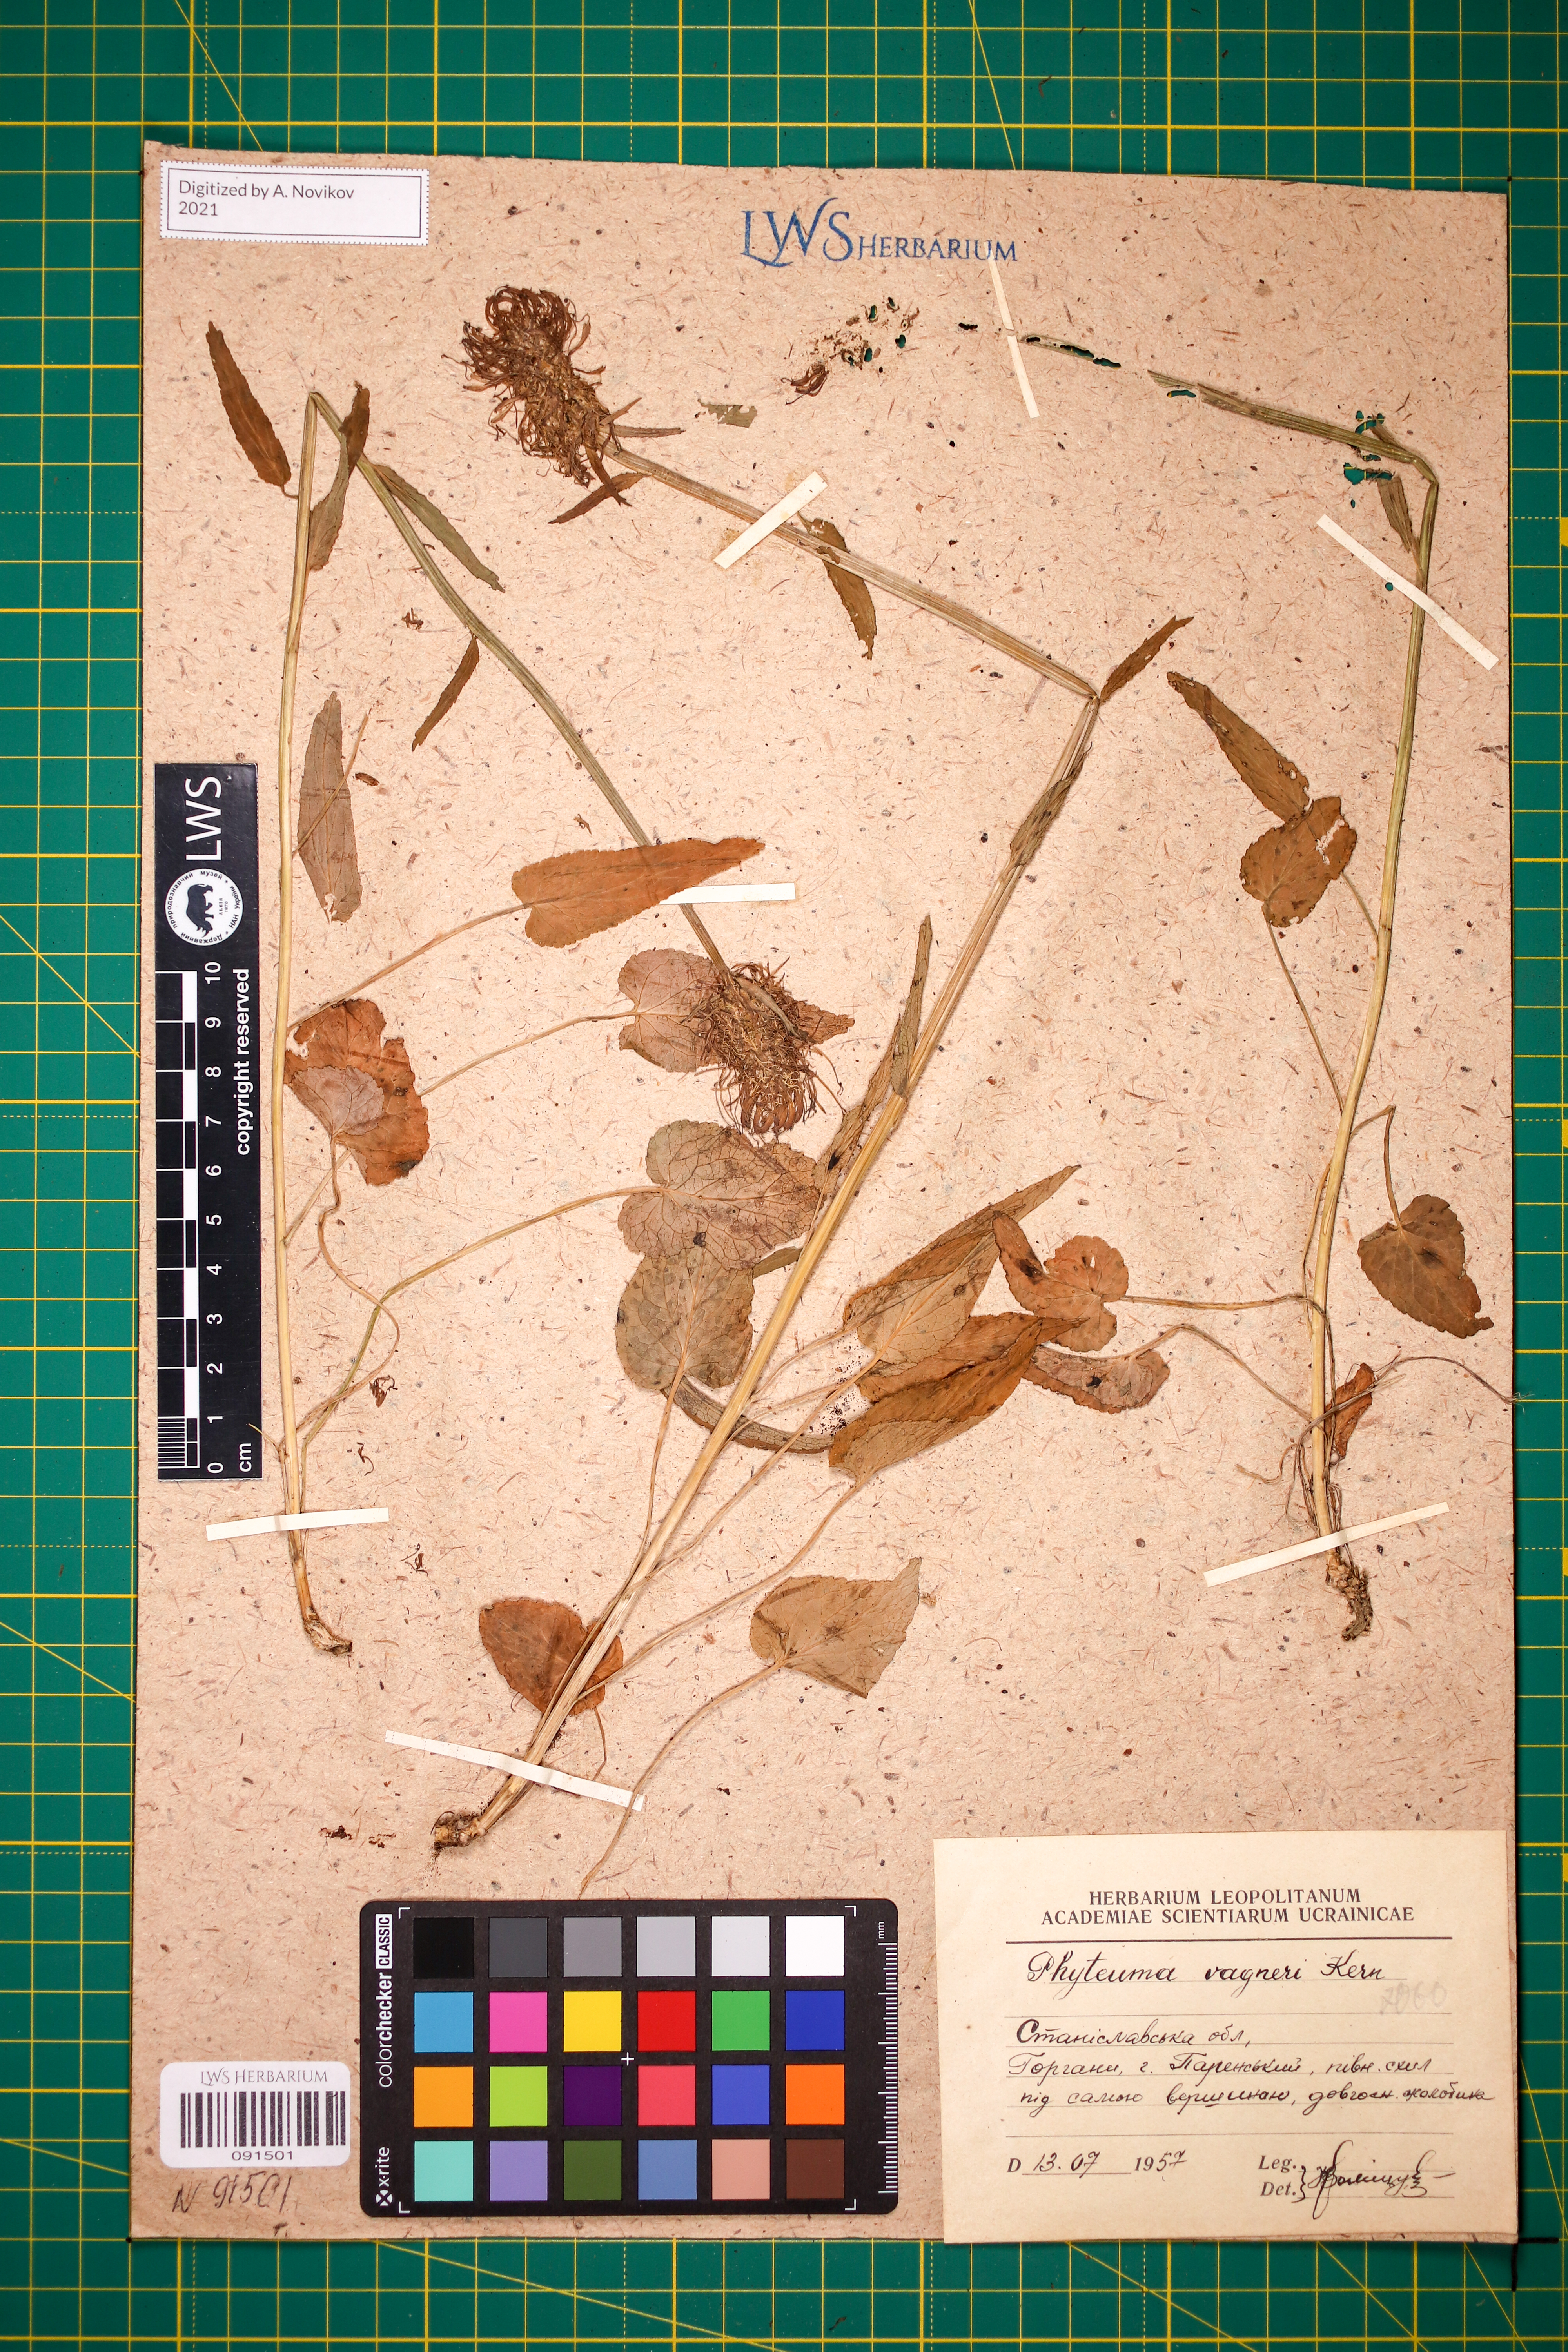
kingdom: Plantae
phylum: Tracheophyta
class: Magnoliopsida
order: Asterales
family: Campanulaceae
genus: Phyteuma
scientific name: Phyteuma vagneri
